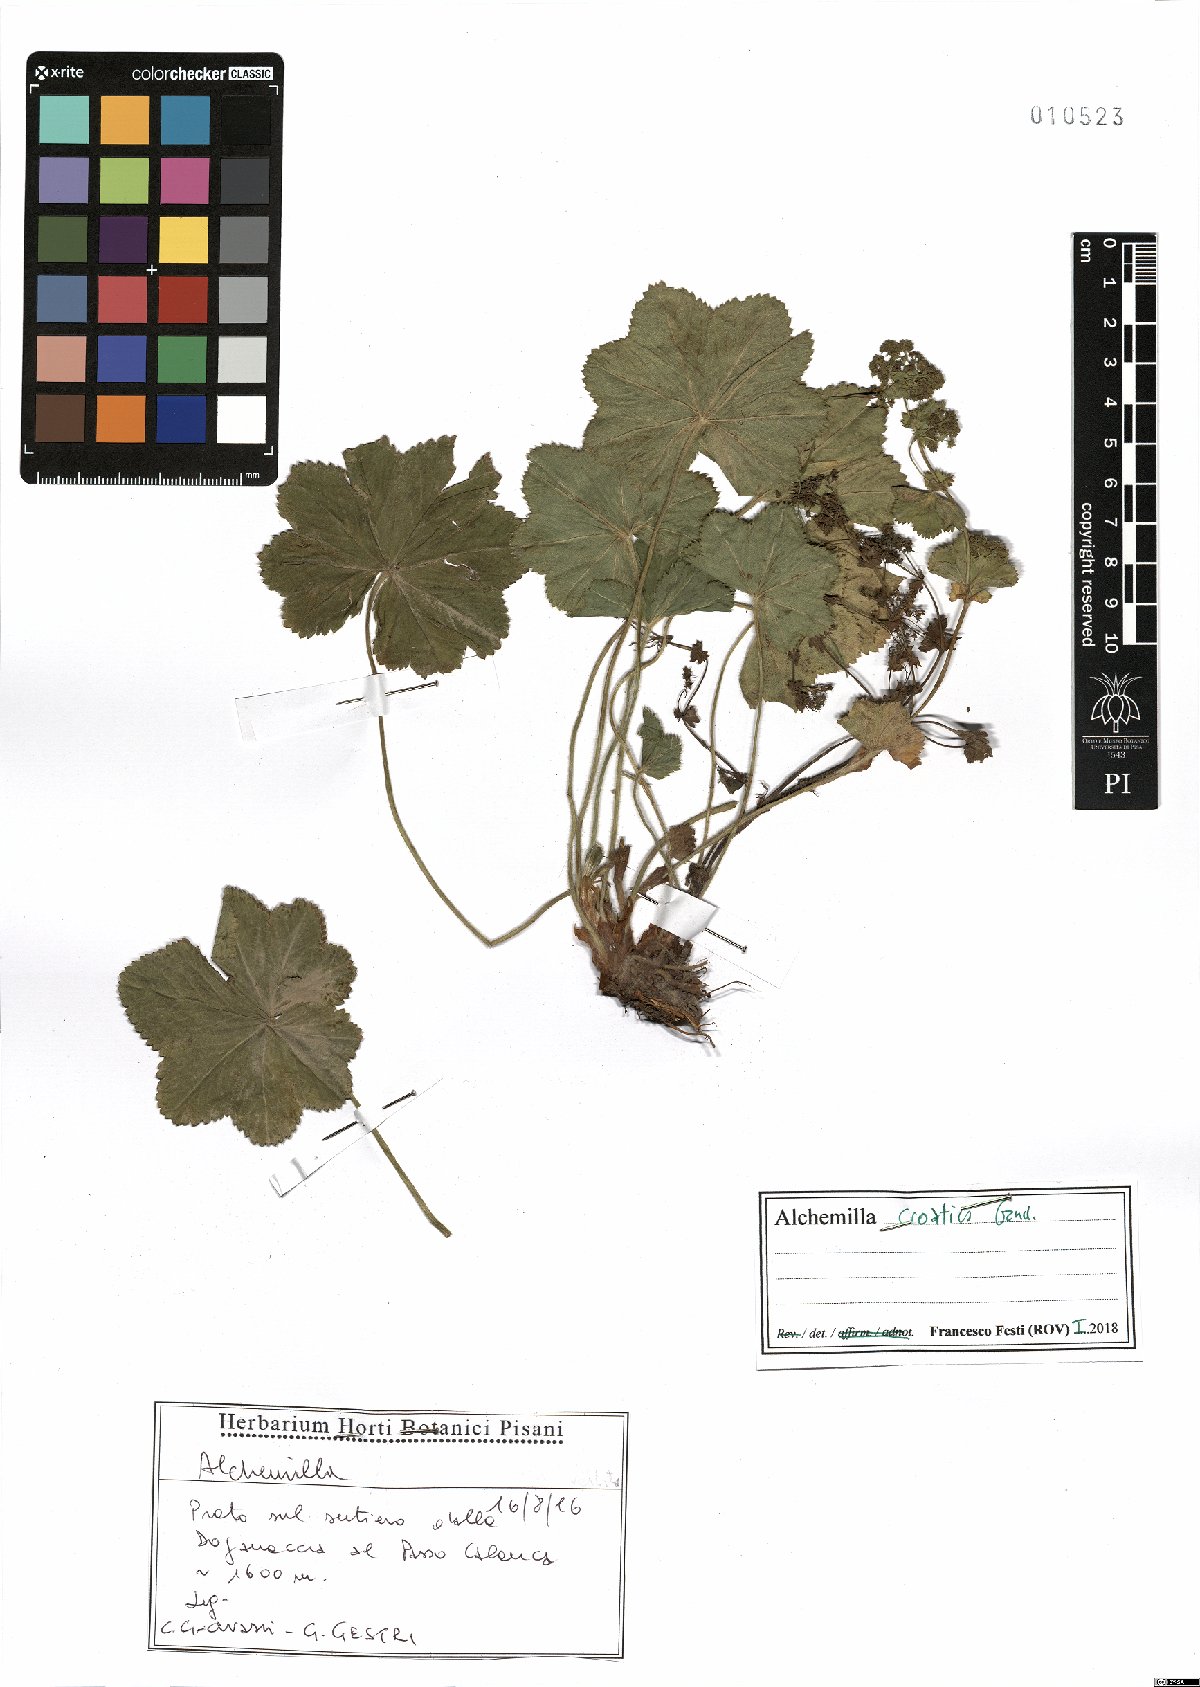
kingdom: Plantae
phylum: Tracheophyta
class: Magnoliopsida
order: Rosales
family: Rosaceae
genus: Alchemilla
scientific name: Alchemilla croatica
